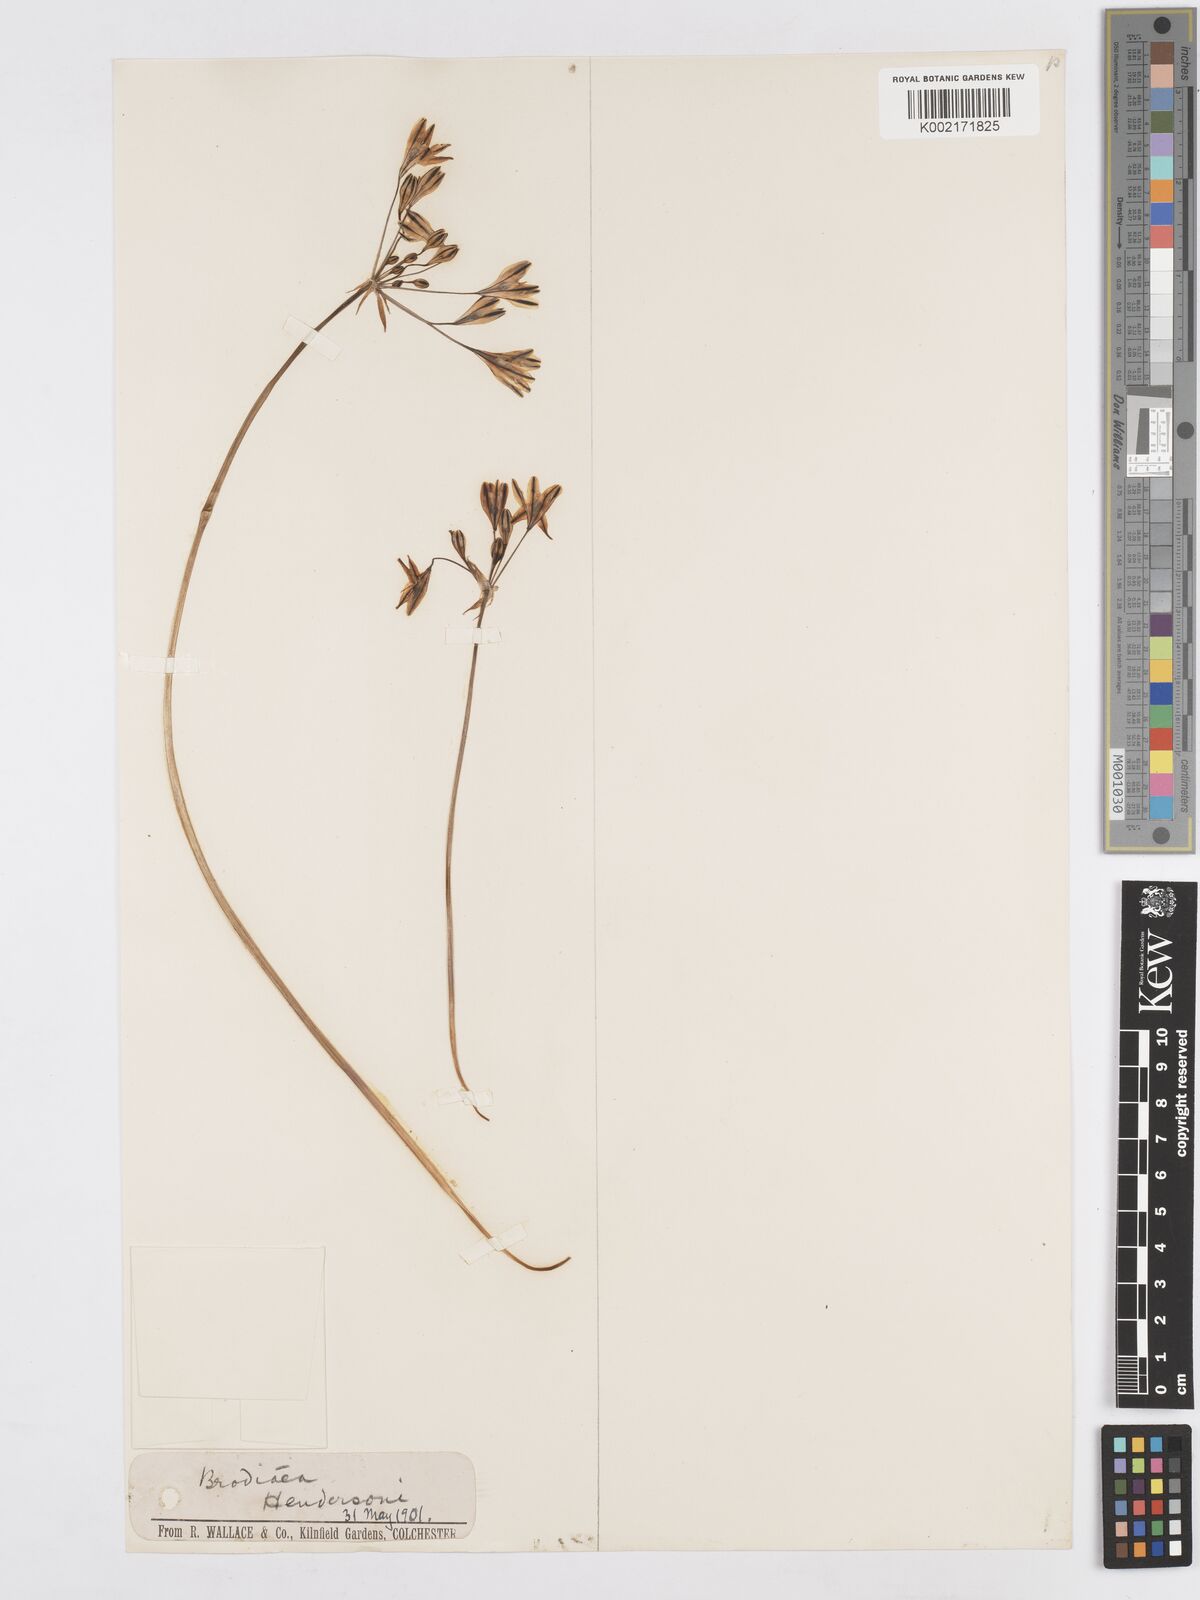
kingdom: Plantae
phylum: Tracheophyta
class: Liliopsida
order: Asparagales
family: Asparagaceae
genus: Triteleia
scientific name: Triteleia hendersonii
